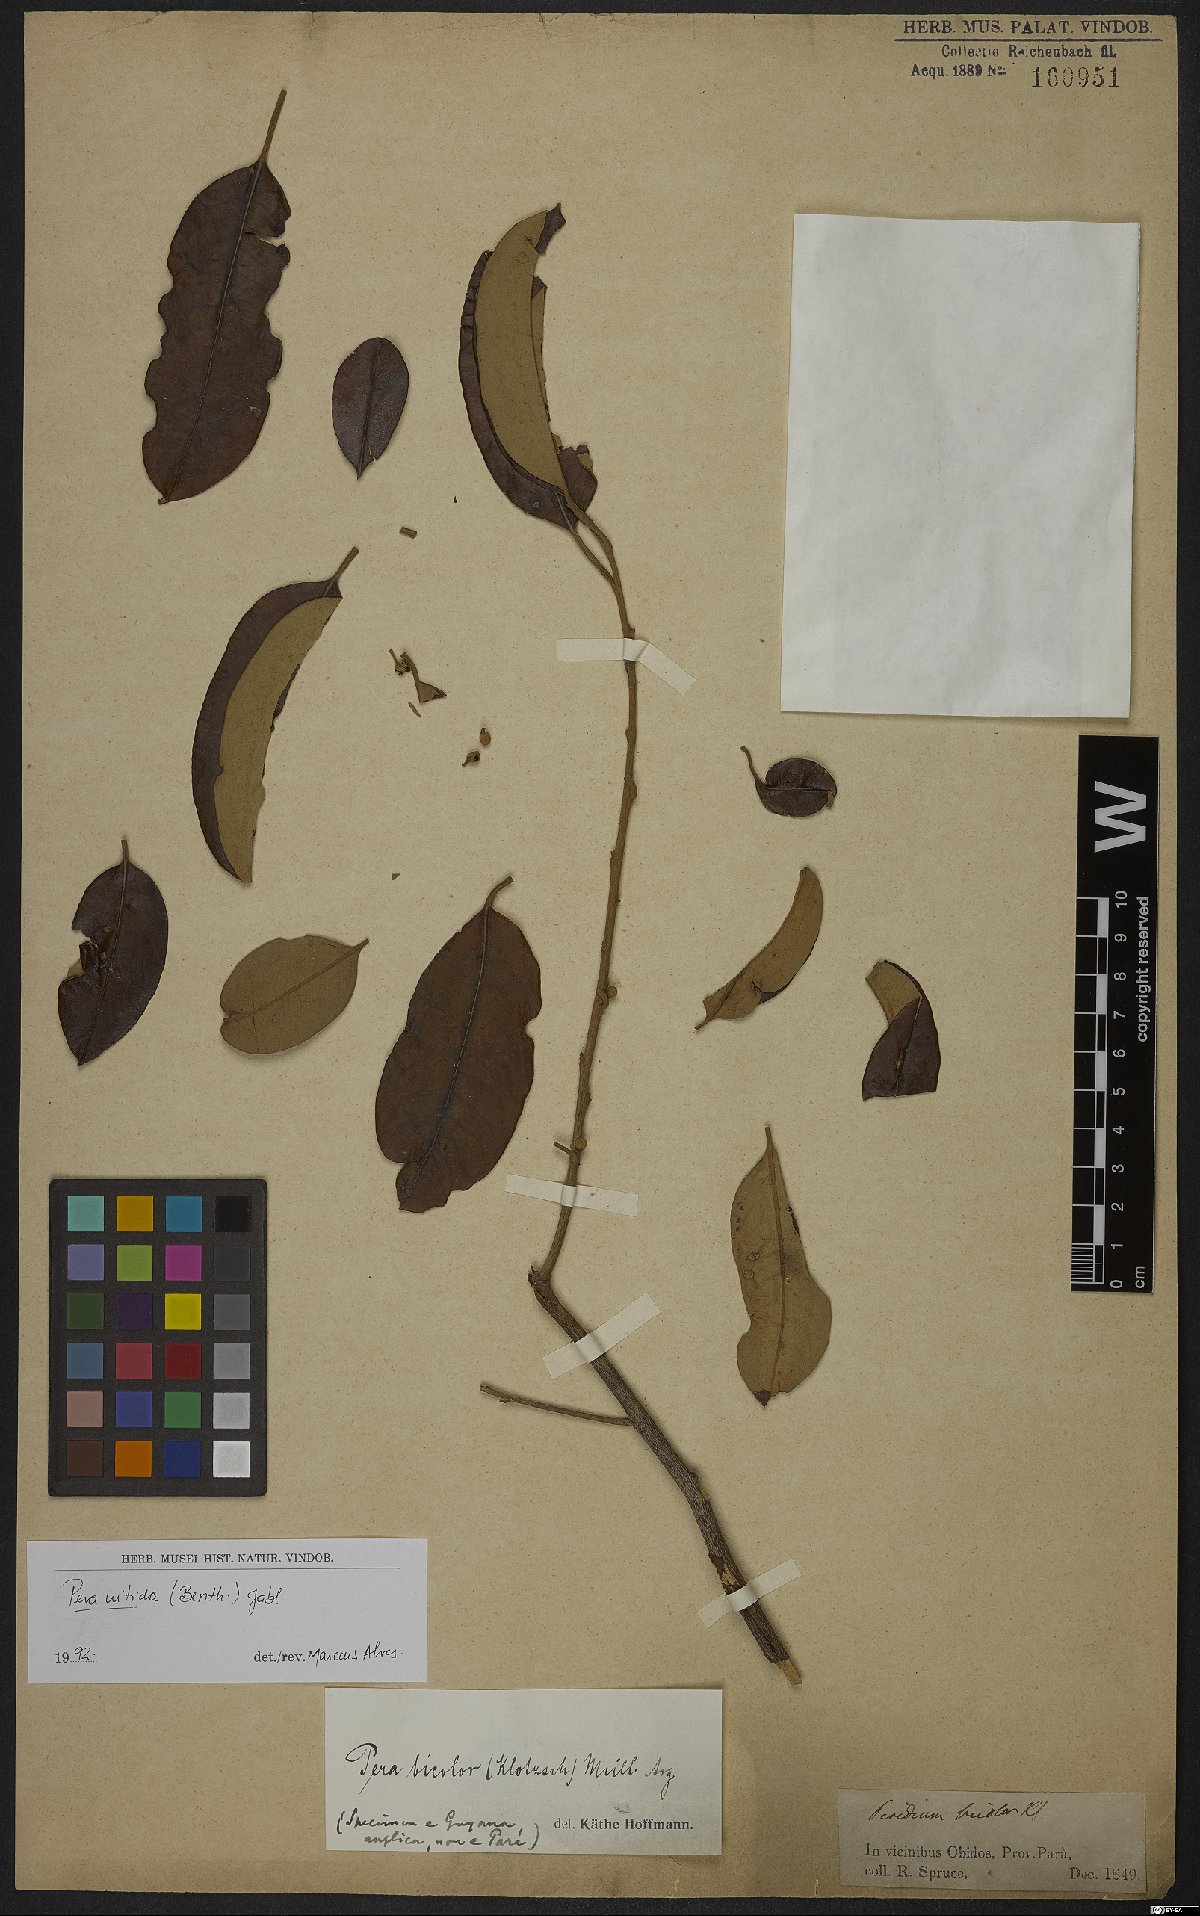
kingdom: Plantae
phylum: Tracheophyta
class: Magnoliopsida
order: Malpighiales
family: Peraceae
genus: Pera
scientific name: Pera decipiens
